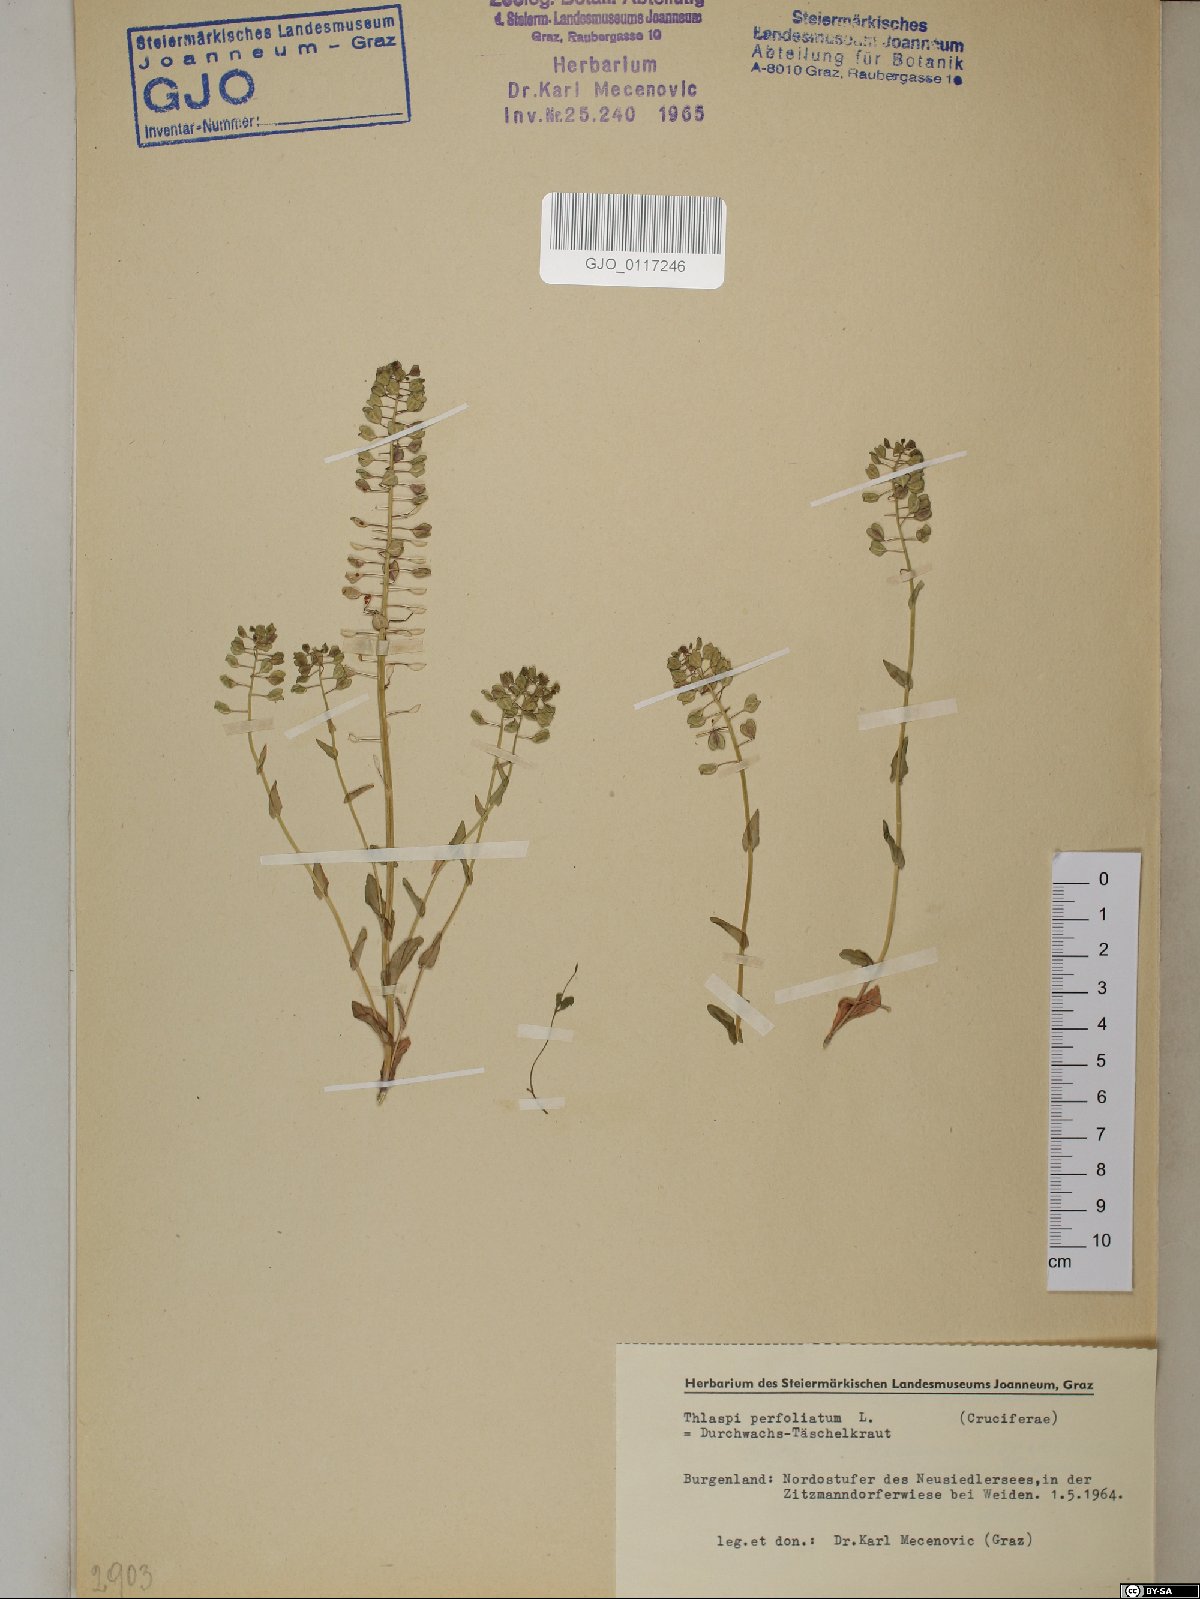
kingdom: Plantae
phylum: Tracheophyta
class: Magnoliopsida
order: Brassicales
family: Brassicaceae
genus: Noccaea
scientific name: Noccaea perfoliata
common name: Perfoliate pennycress
